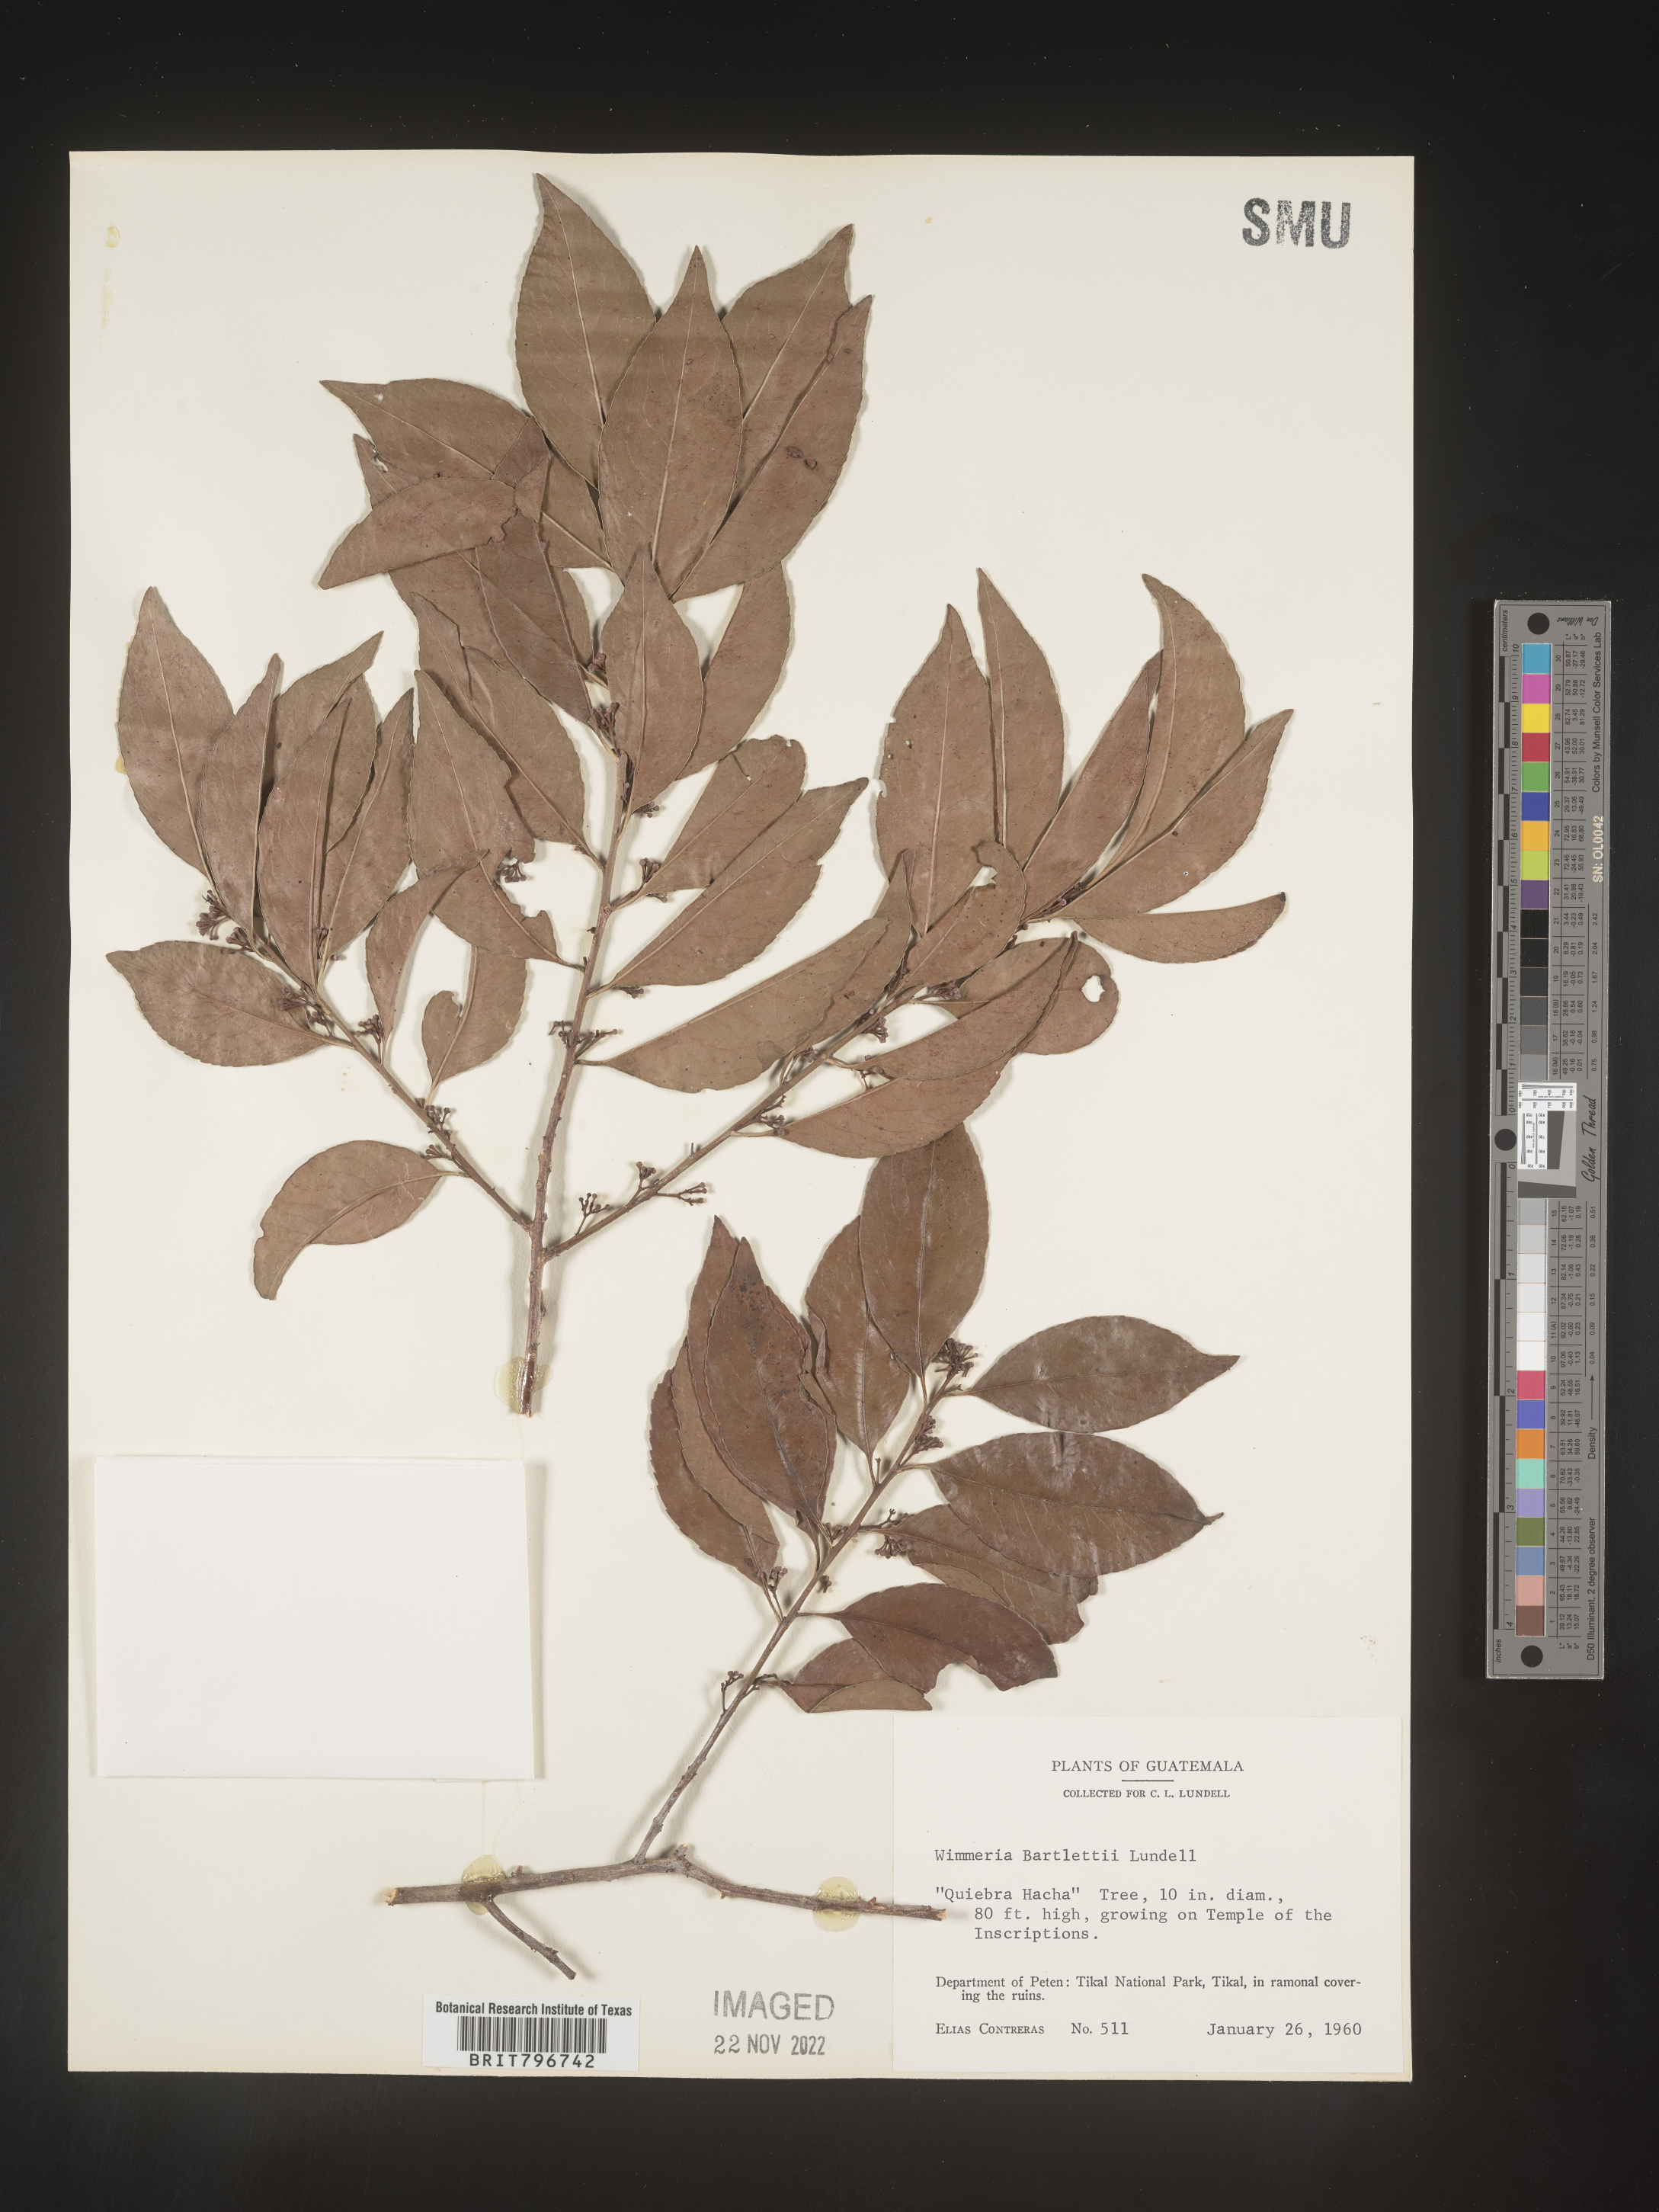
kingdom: Plantae
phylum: Tracheophyta
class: Magnoliopsida
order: Celastrales
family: Celastraceae
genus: Wimmeria
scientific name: Wimmeria
